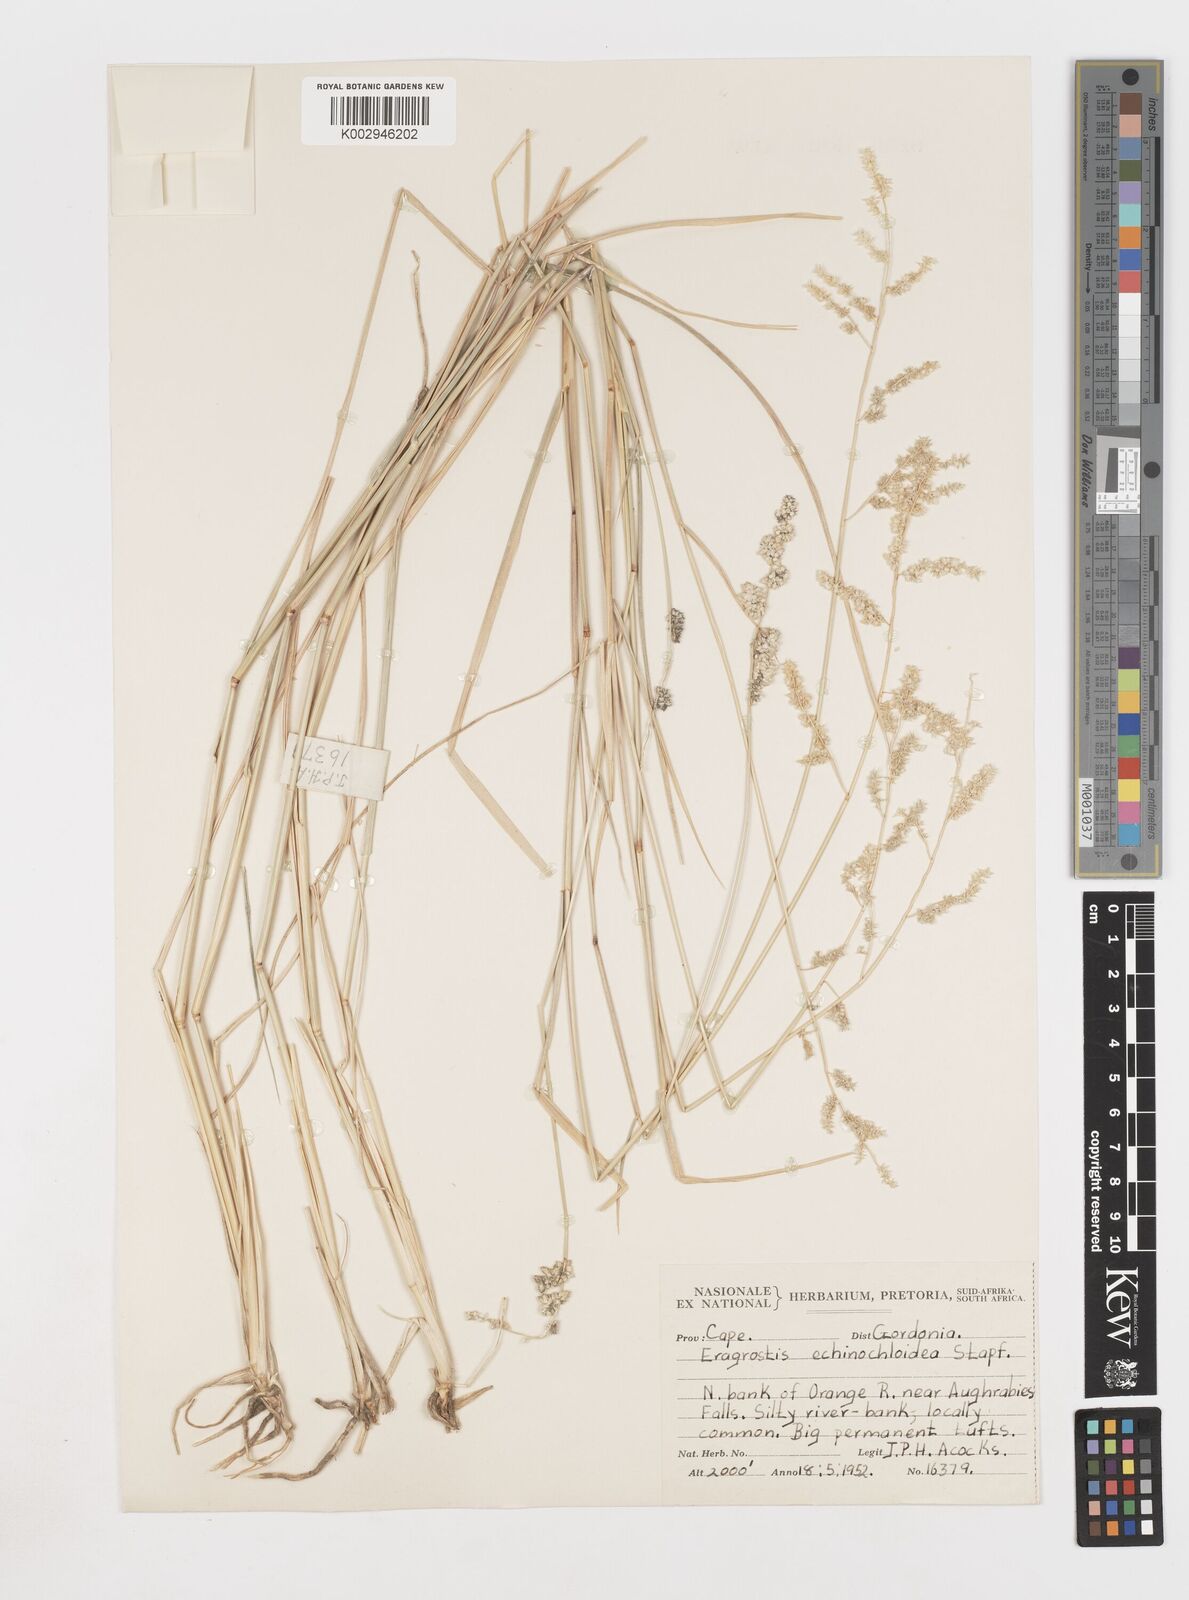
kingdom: Plantae
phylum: Tracheophyta
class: Liliopsida
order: Poales
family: Poaceae
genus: Eragrostis
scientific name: Eragrostis echinochloidea
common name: African lovegrass
